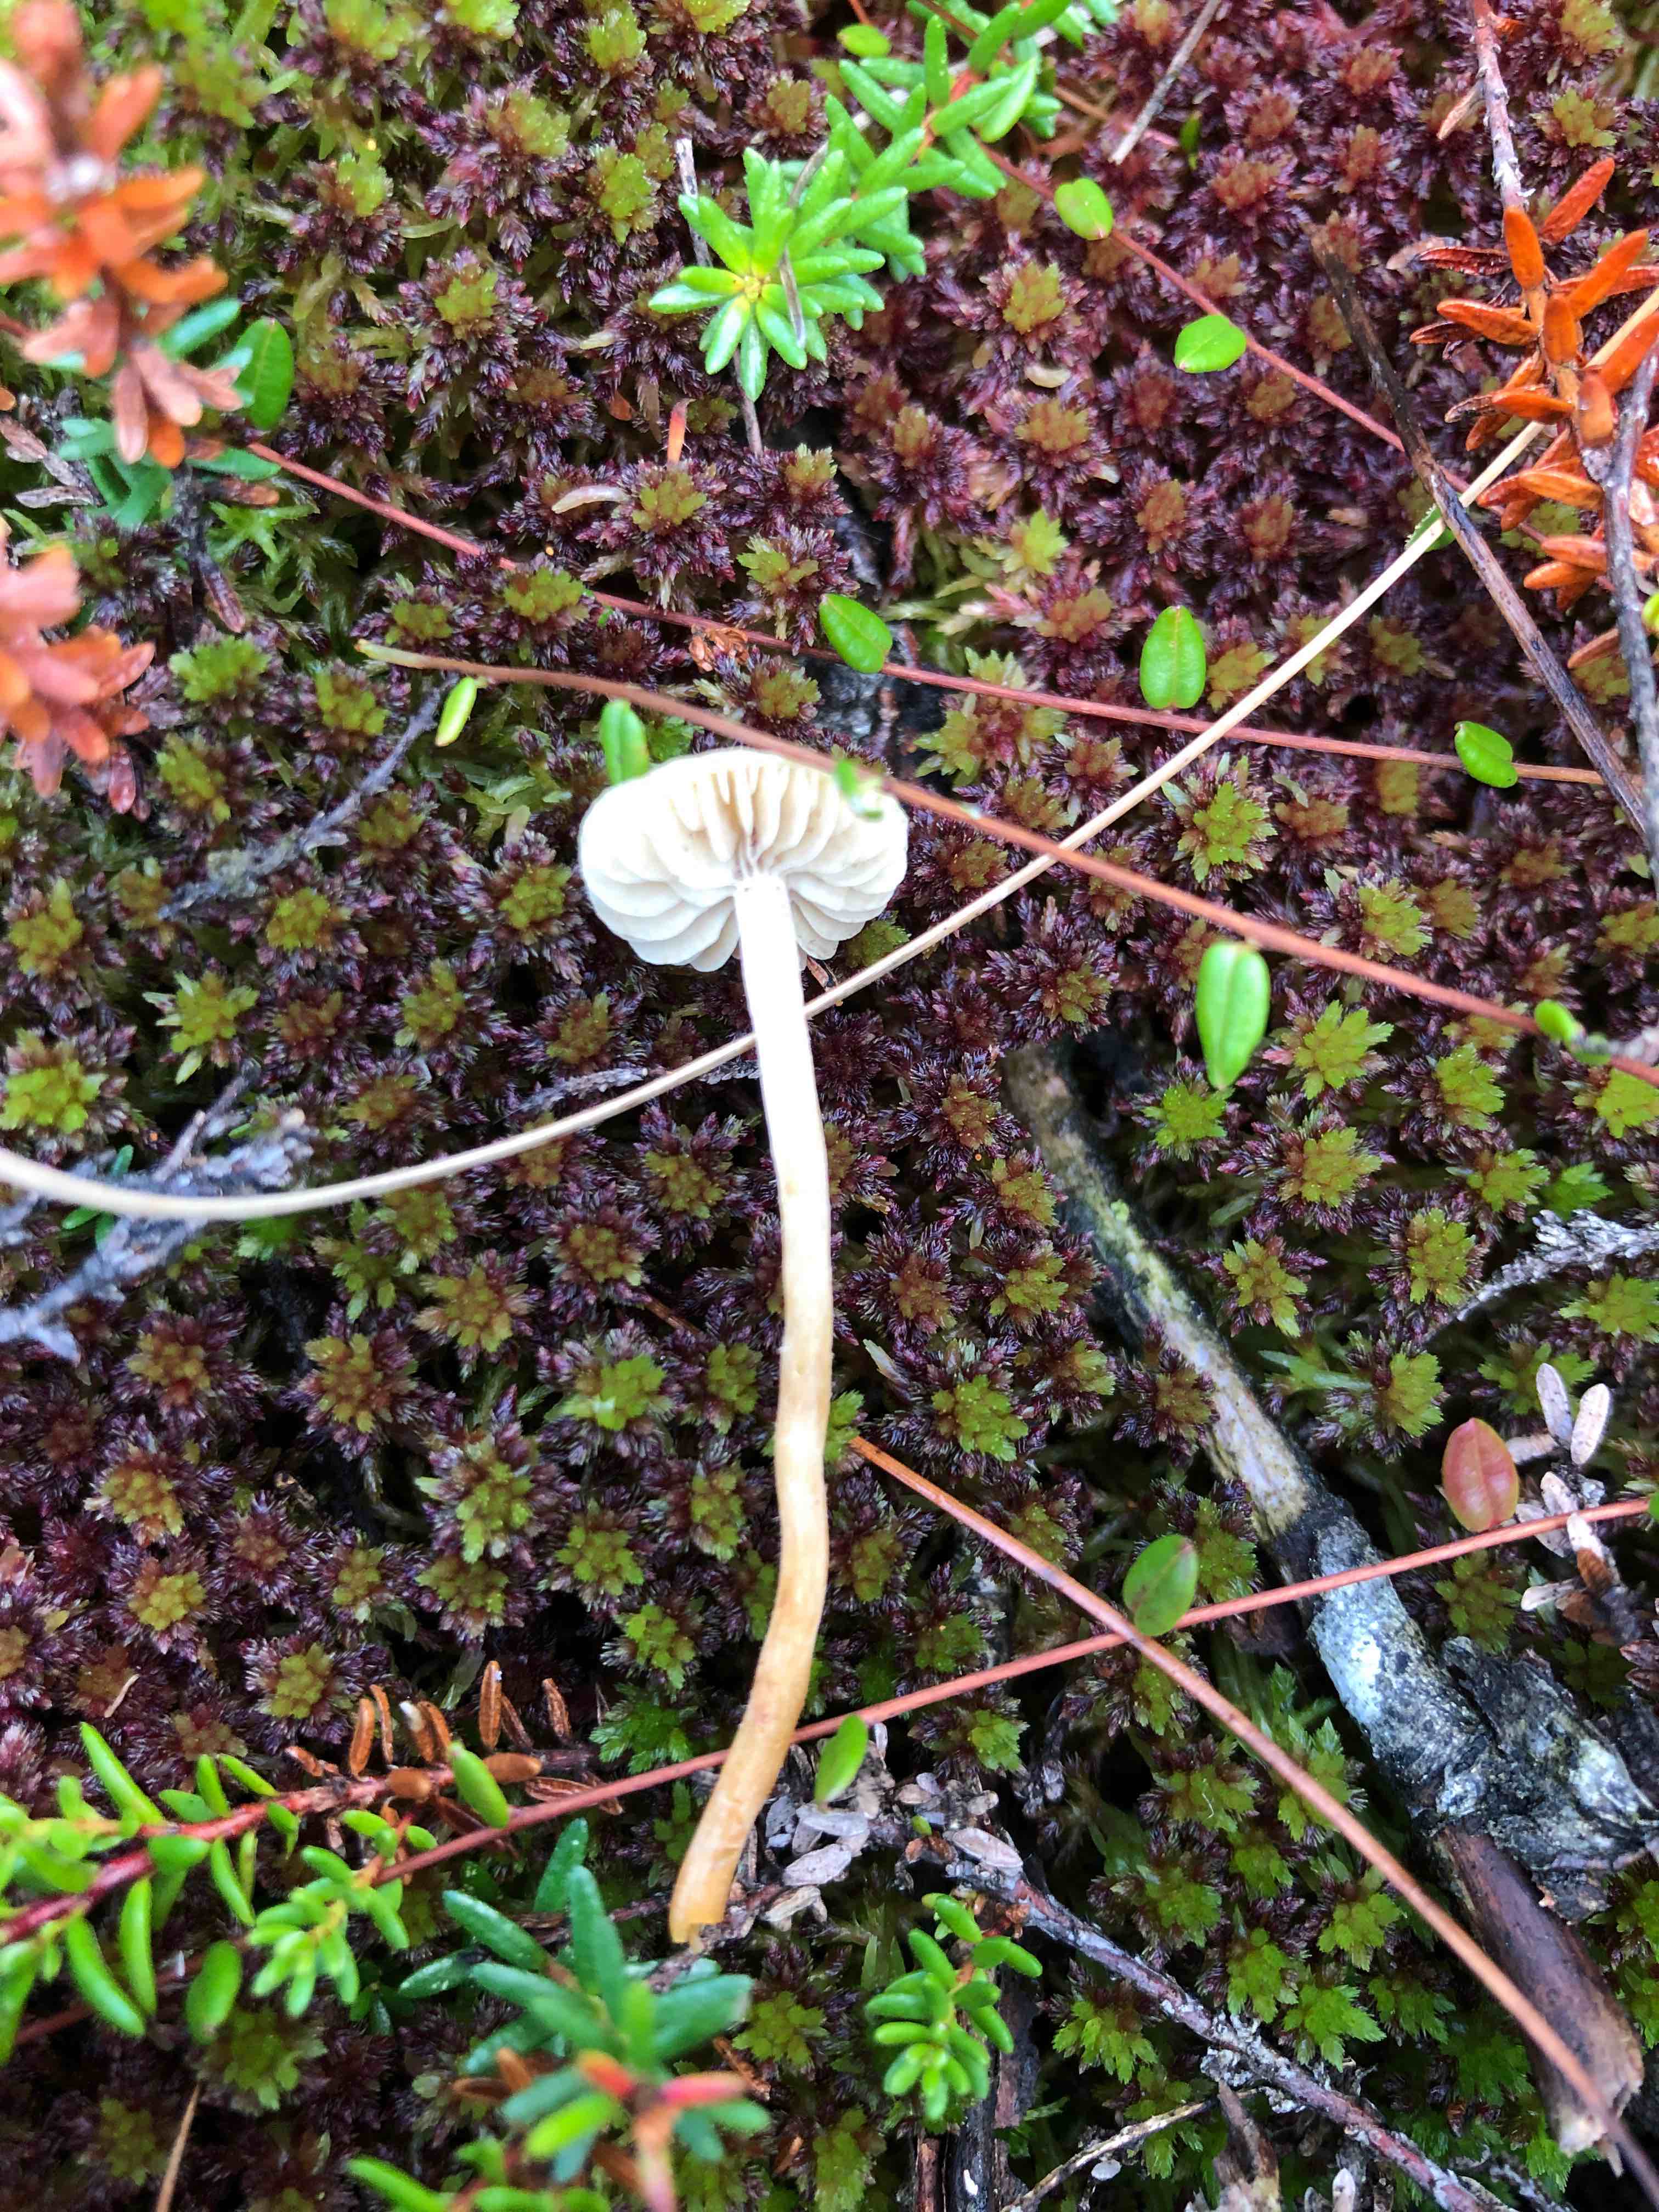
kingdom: Fungi
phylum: Basidiomycota
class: Agaricomycetes
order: Agaricales
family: Strophariaceae
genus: Hypholoma
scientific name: Hypholoma elongatum
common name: slank svovlhat
